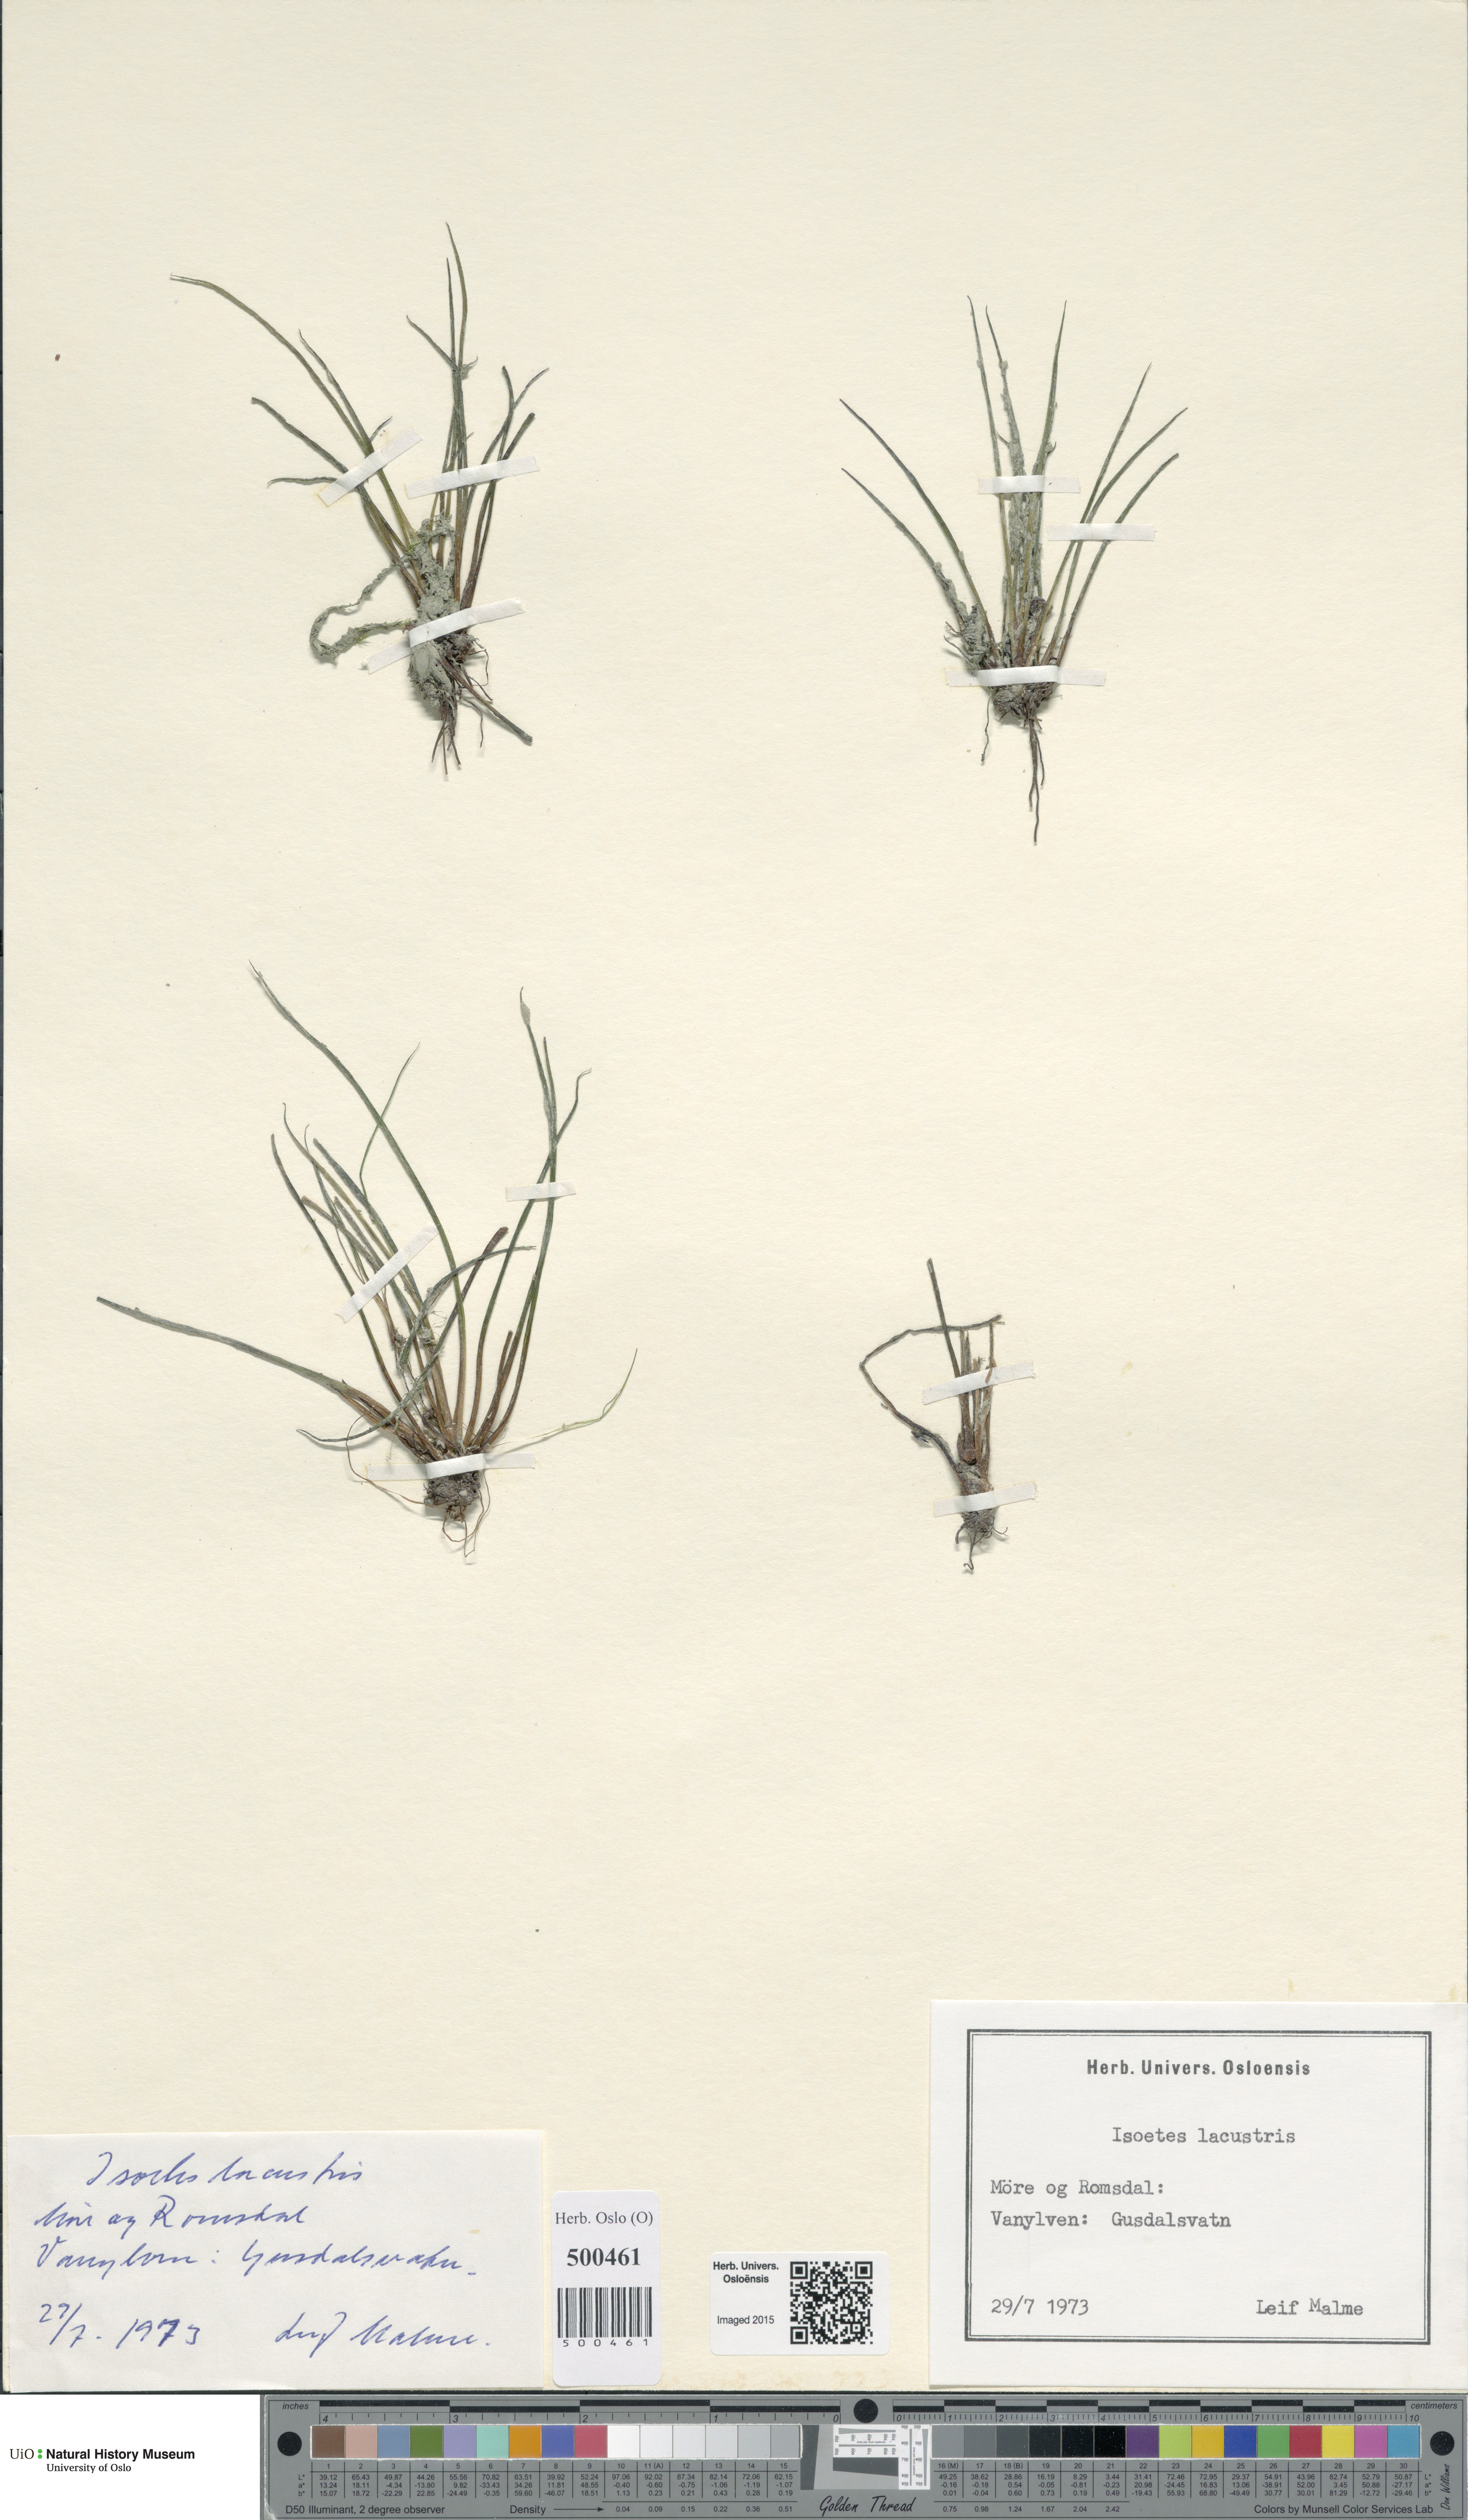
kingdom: Plantae
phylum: Tracheophyta
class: Lycopodiopsida
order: Isoetales
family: Isoetaceae
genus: Isoetes
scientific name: Isoetes lacustris
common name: Common quillwort
